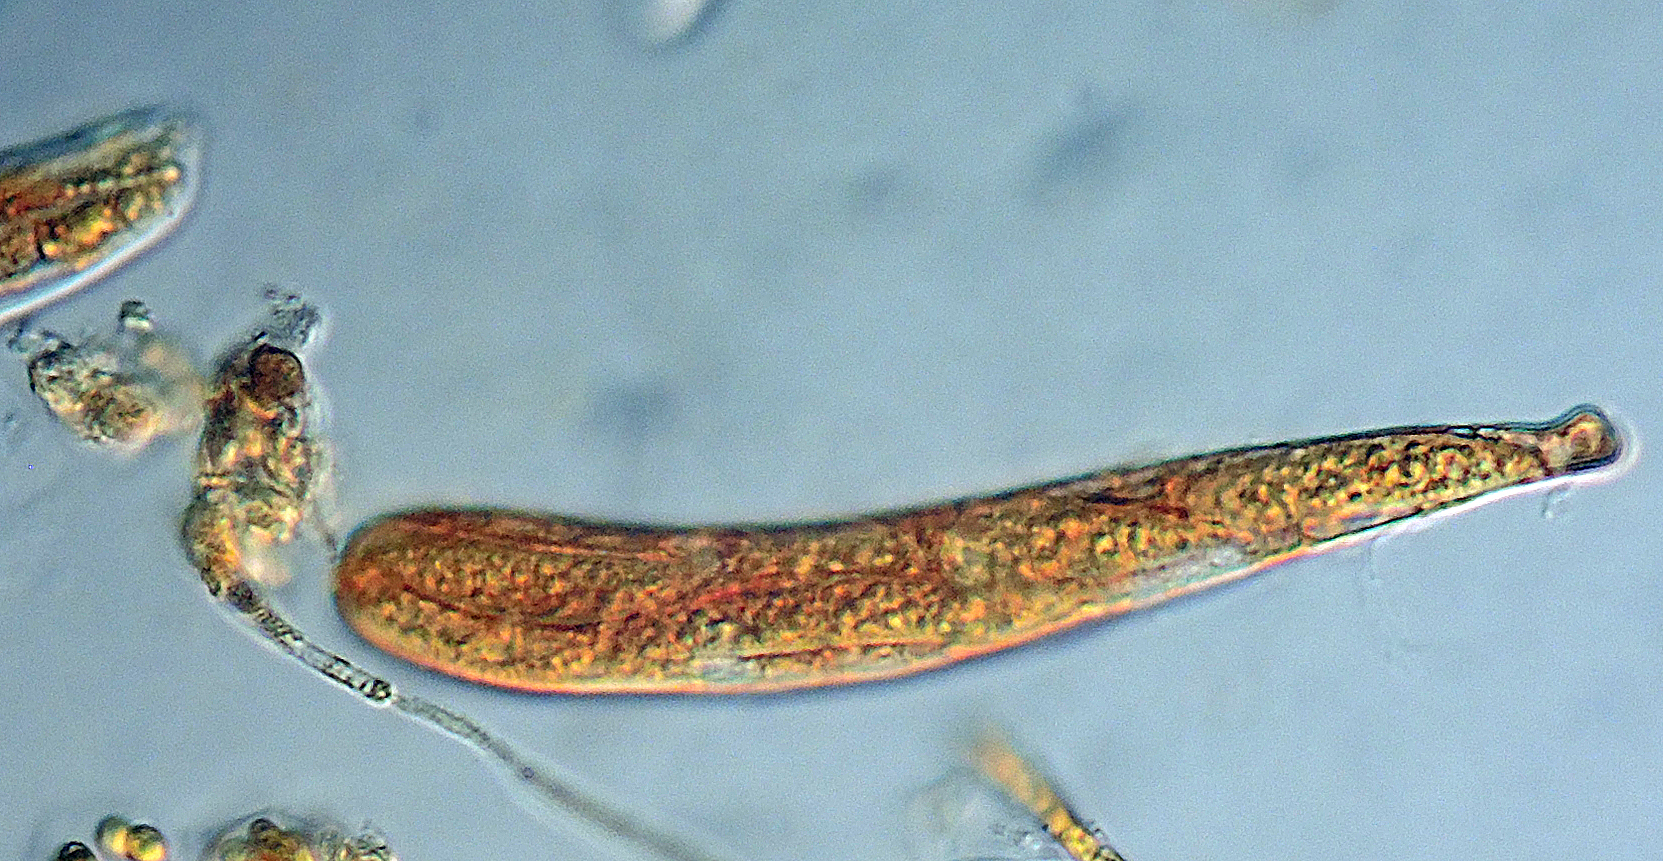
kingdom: Fungi
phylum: Ascomycota
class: Leotiomycetes
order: Helotiales
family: Helotiaceae
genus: Durella
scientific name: Durella connivens
